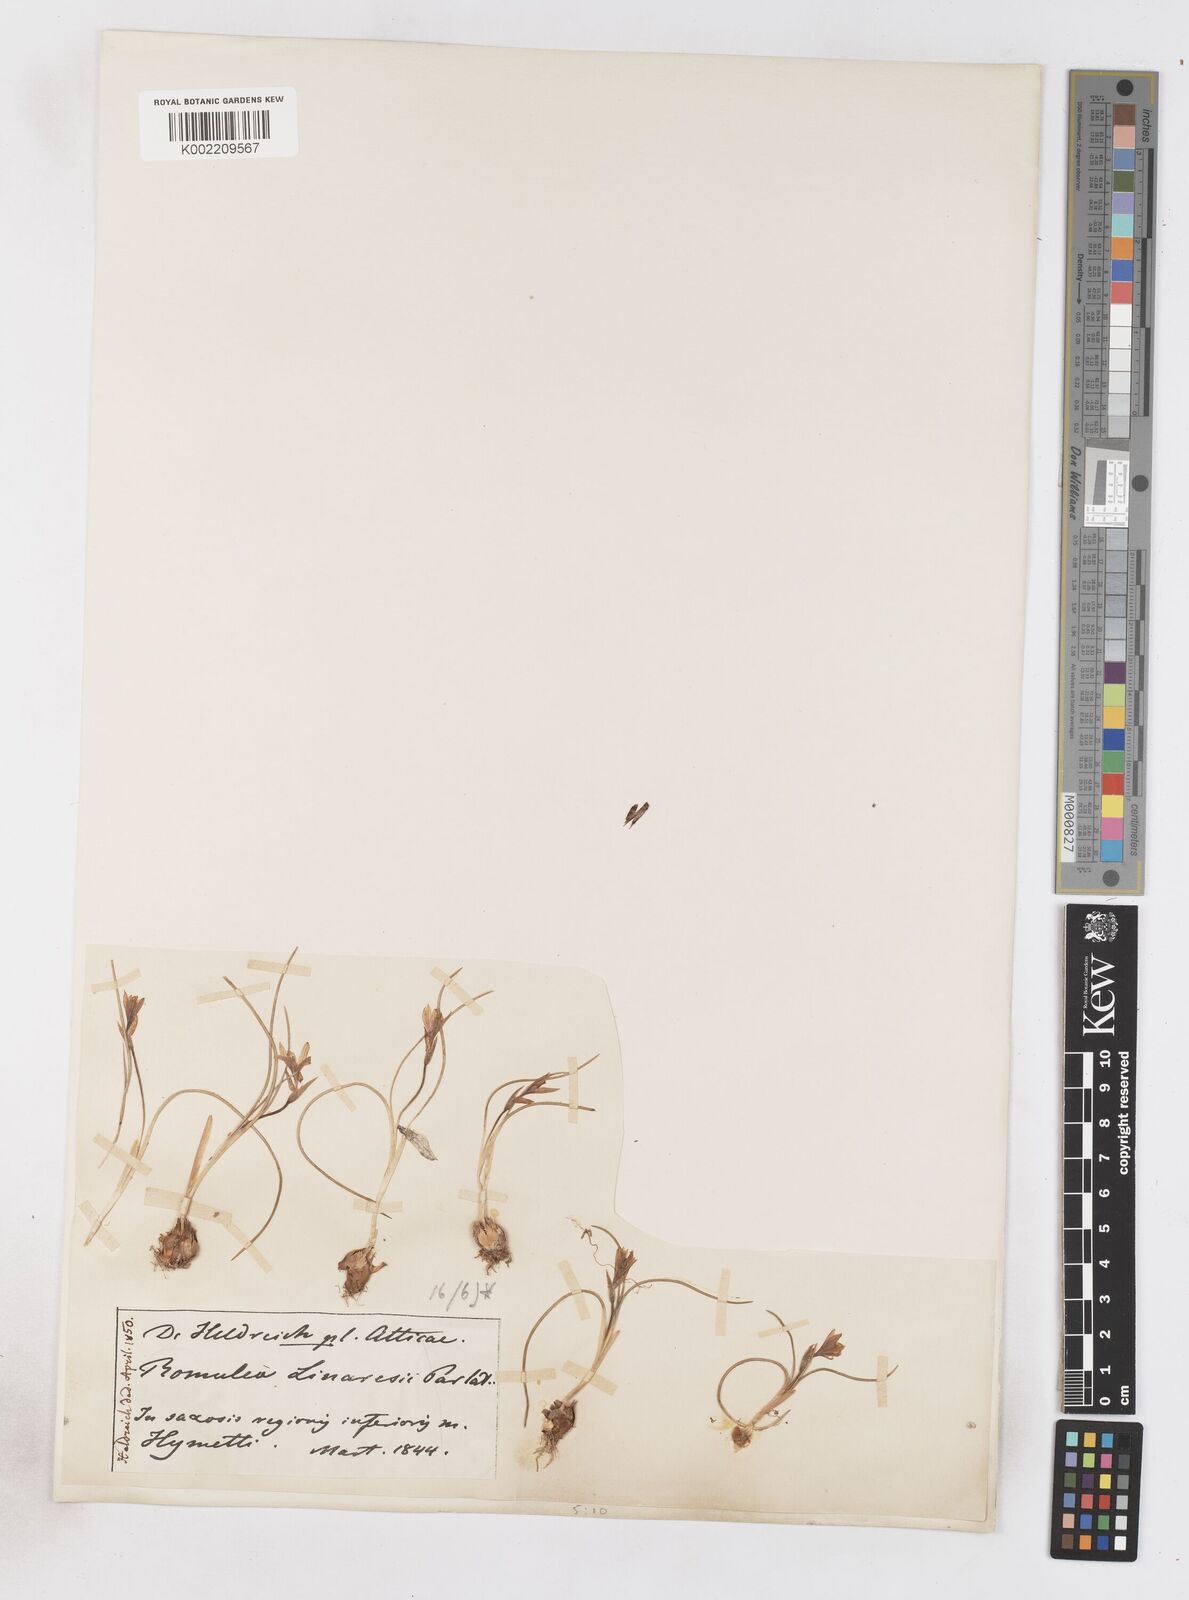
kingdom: Plantae
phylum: Tracheophyta
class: Liliopsida
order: Asparagales
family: Iridaceae
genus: Romulea
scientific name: Romulea linaresii
